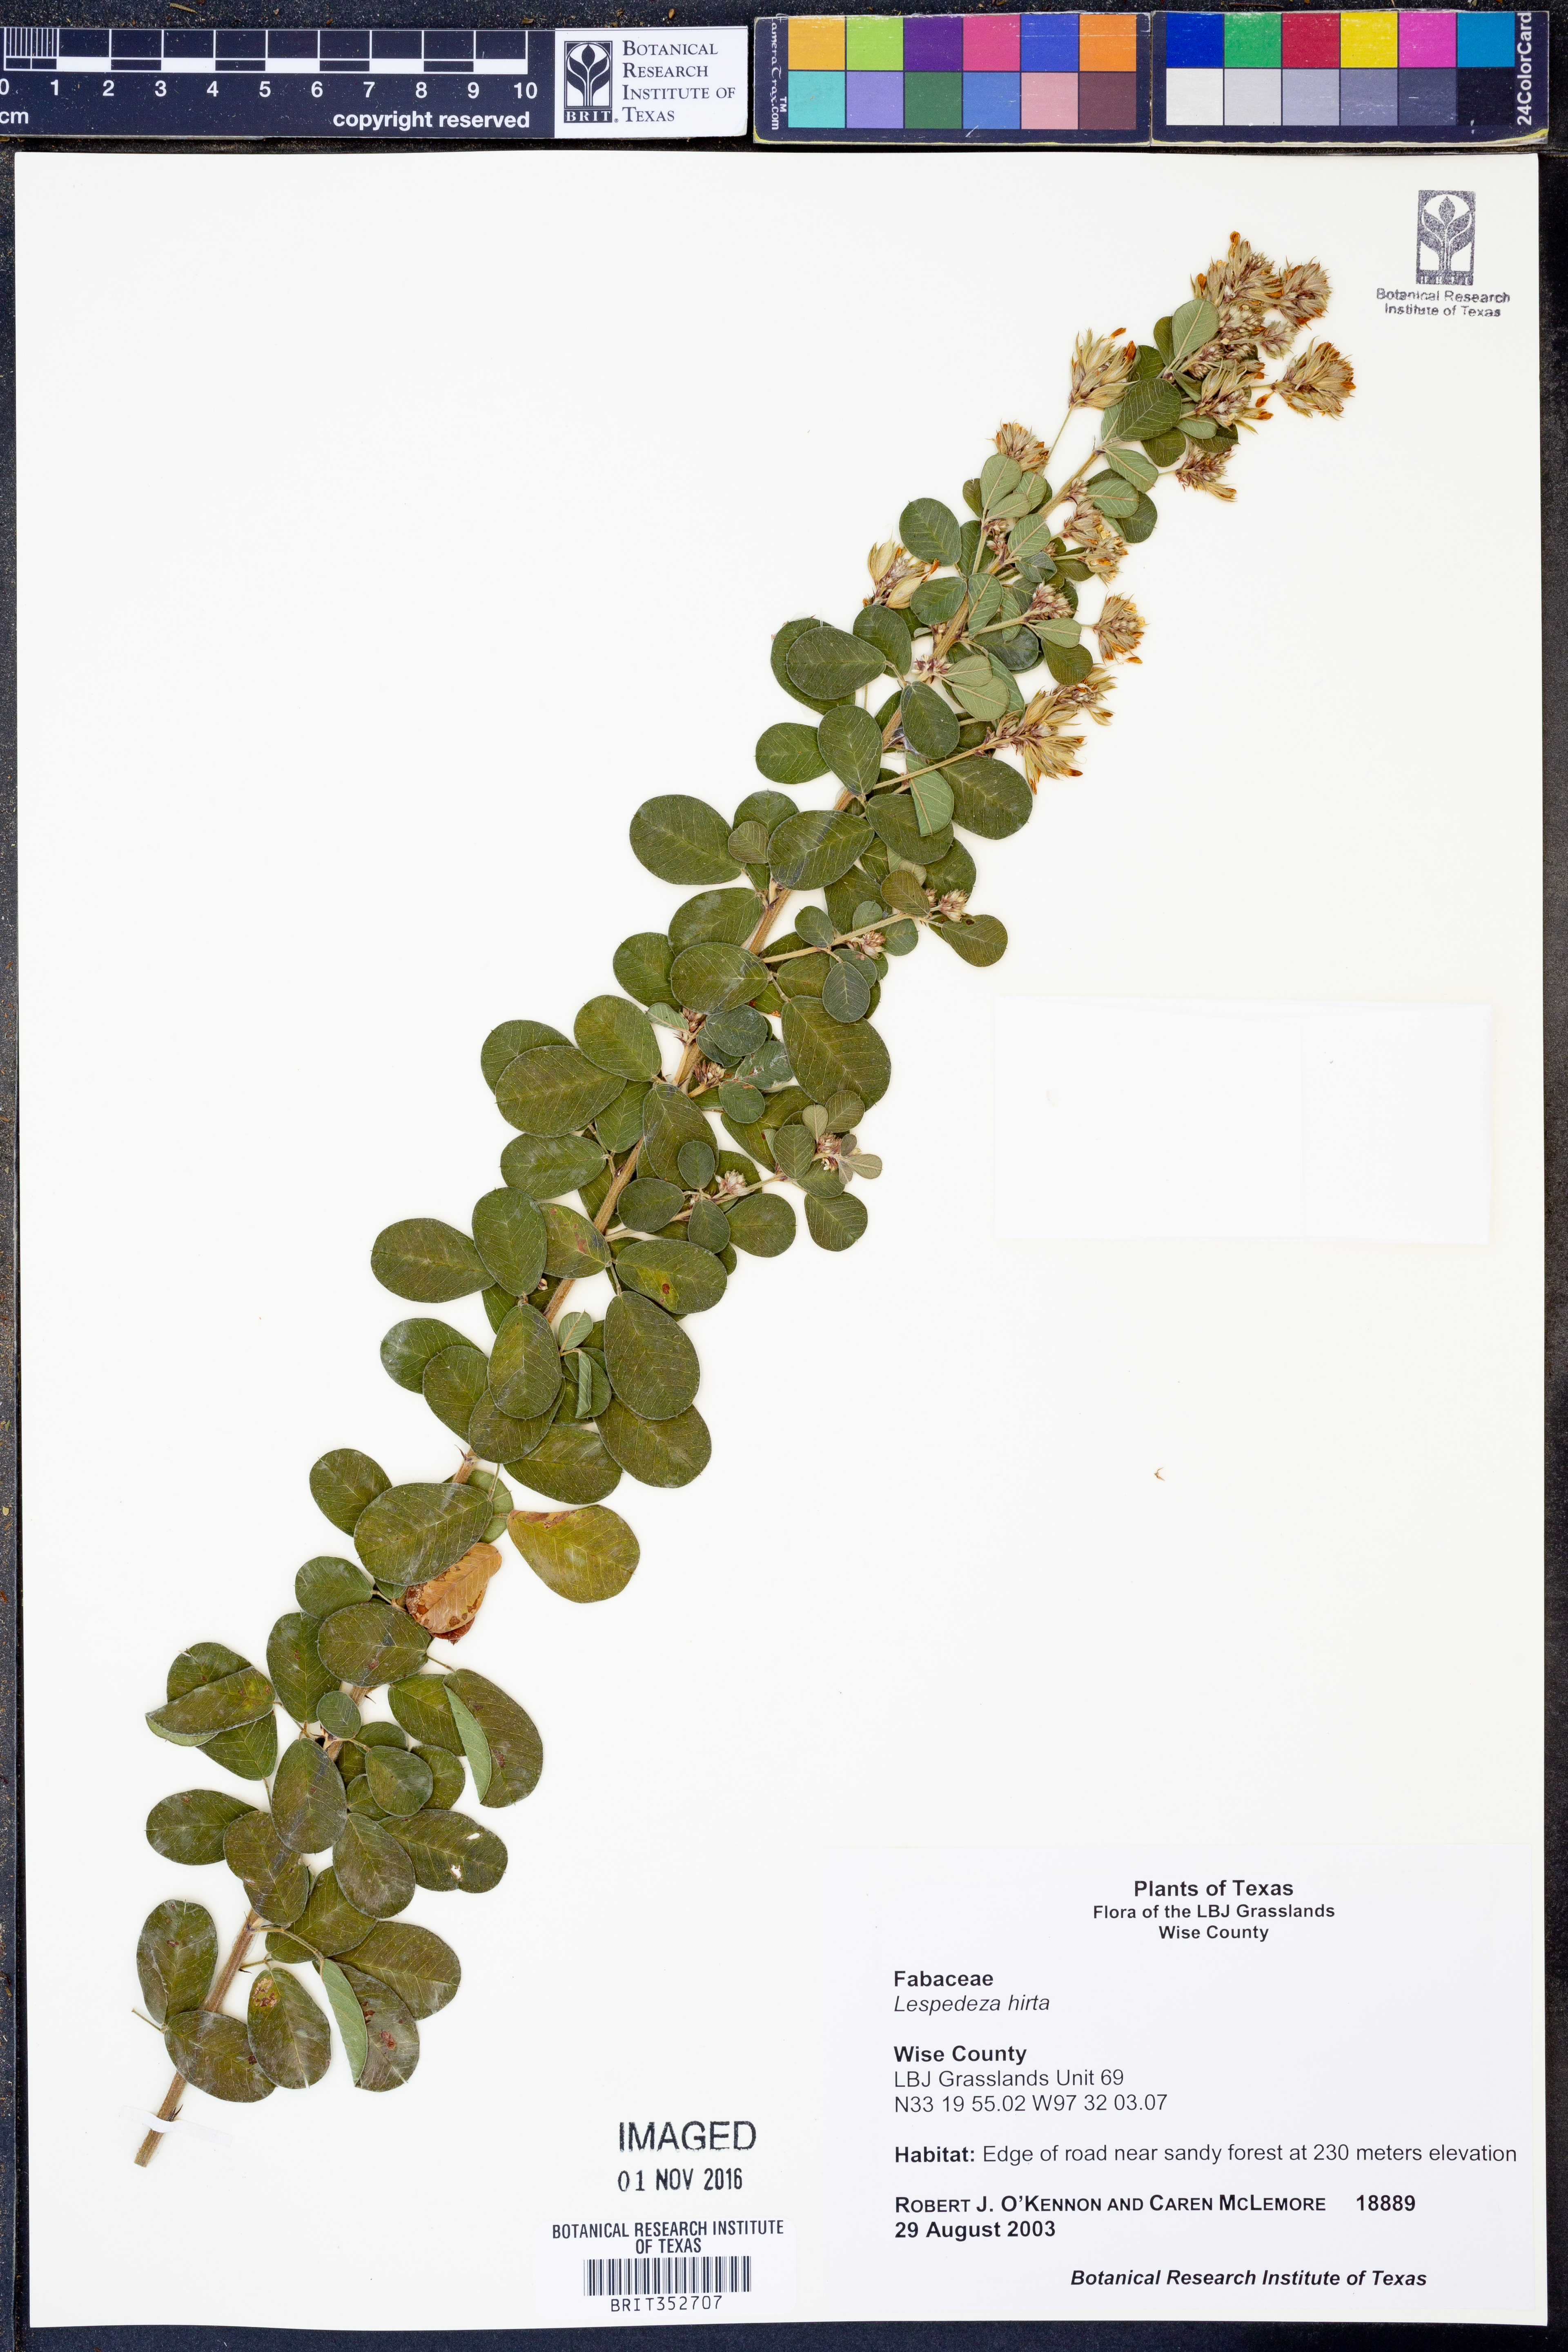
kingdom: Plantae
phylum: Tracheophyta
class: Magnoliopsida
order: Fabales
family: Fabaceae
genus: Lespedeza
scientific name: Lespedeza hirta
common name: Hairy lespedeza
